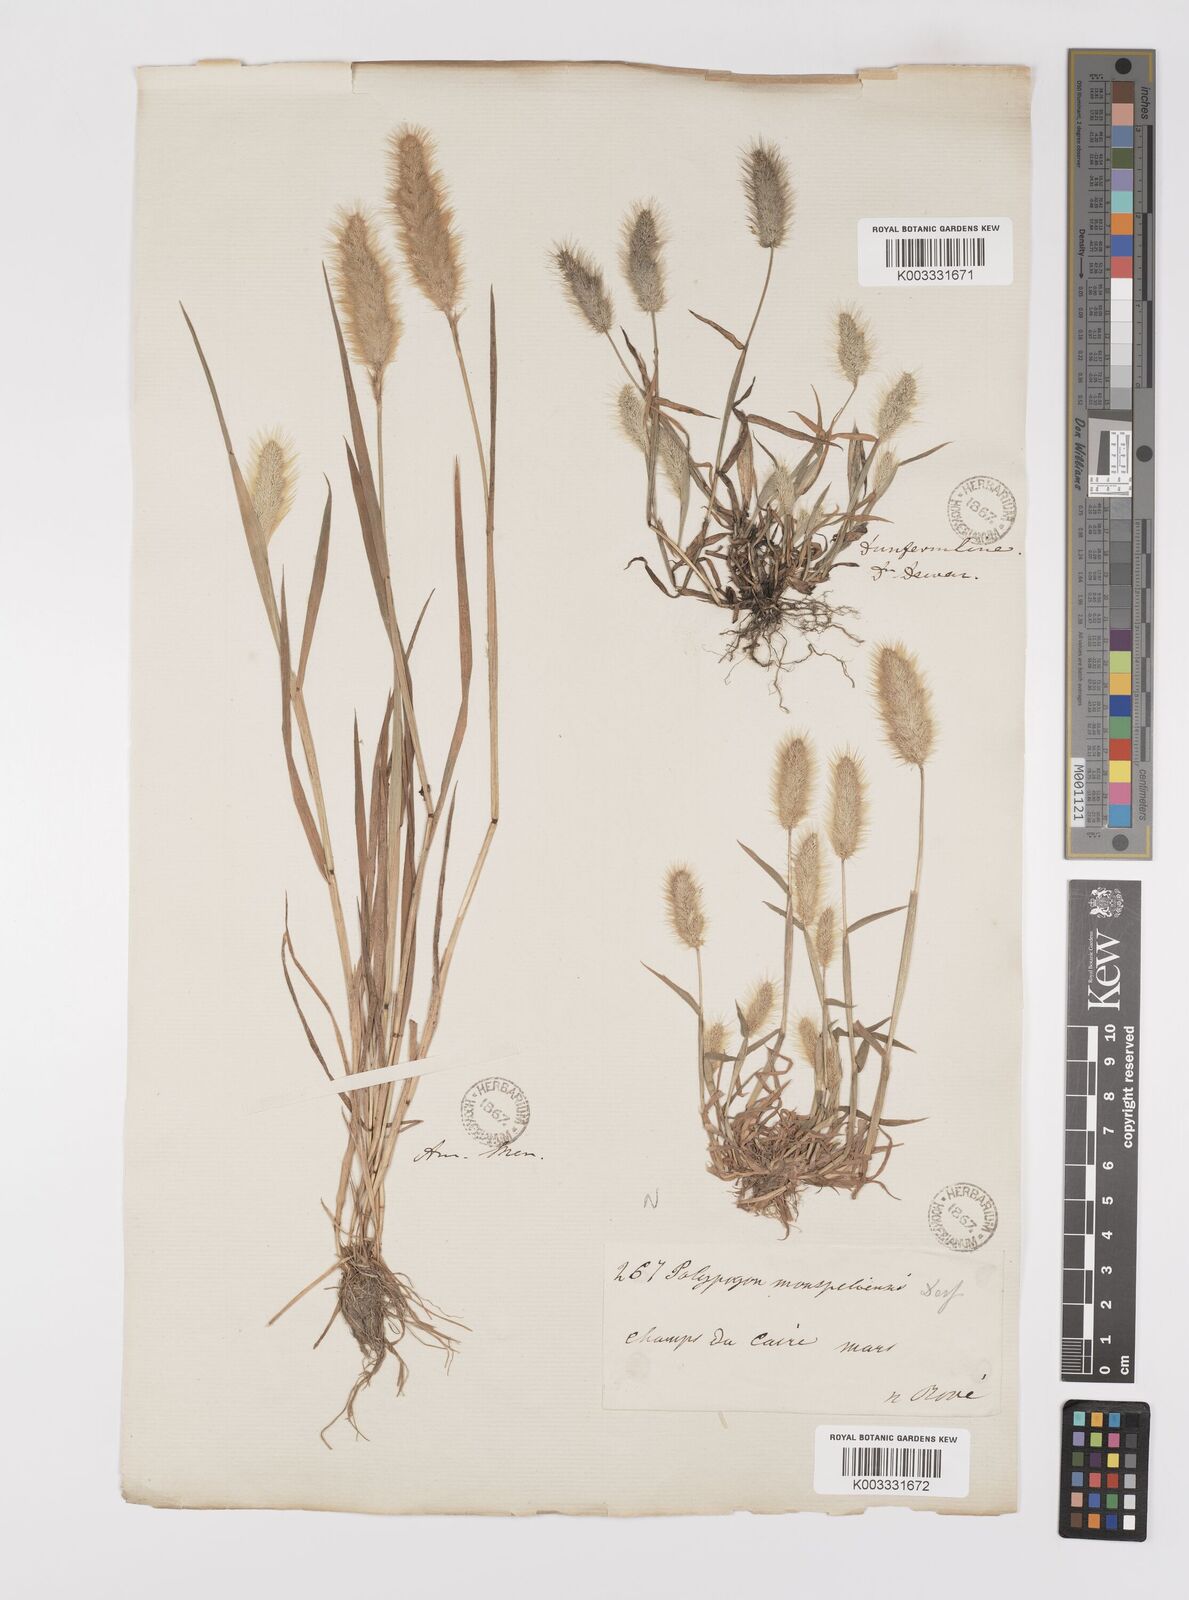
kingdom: Plantae
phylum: Tracheophyta
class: Liliopsida
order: Poales
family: Poaceae
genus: Polypogon
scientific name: Polypogon monspeliensis
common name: Annual rabbitsfoot grass
